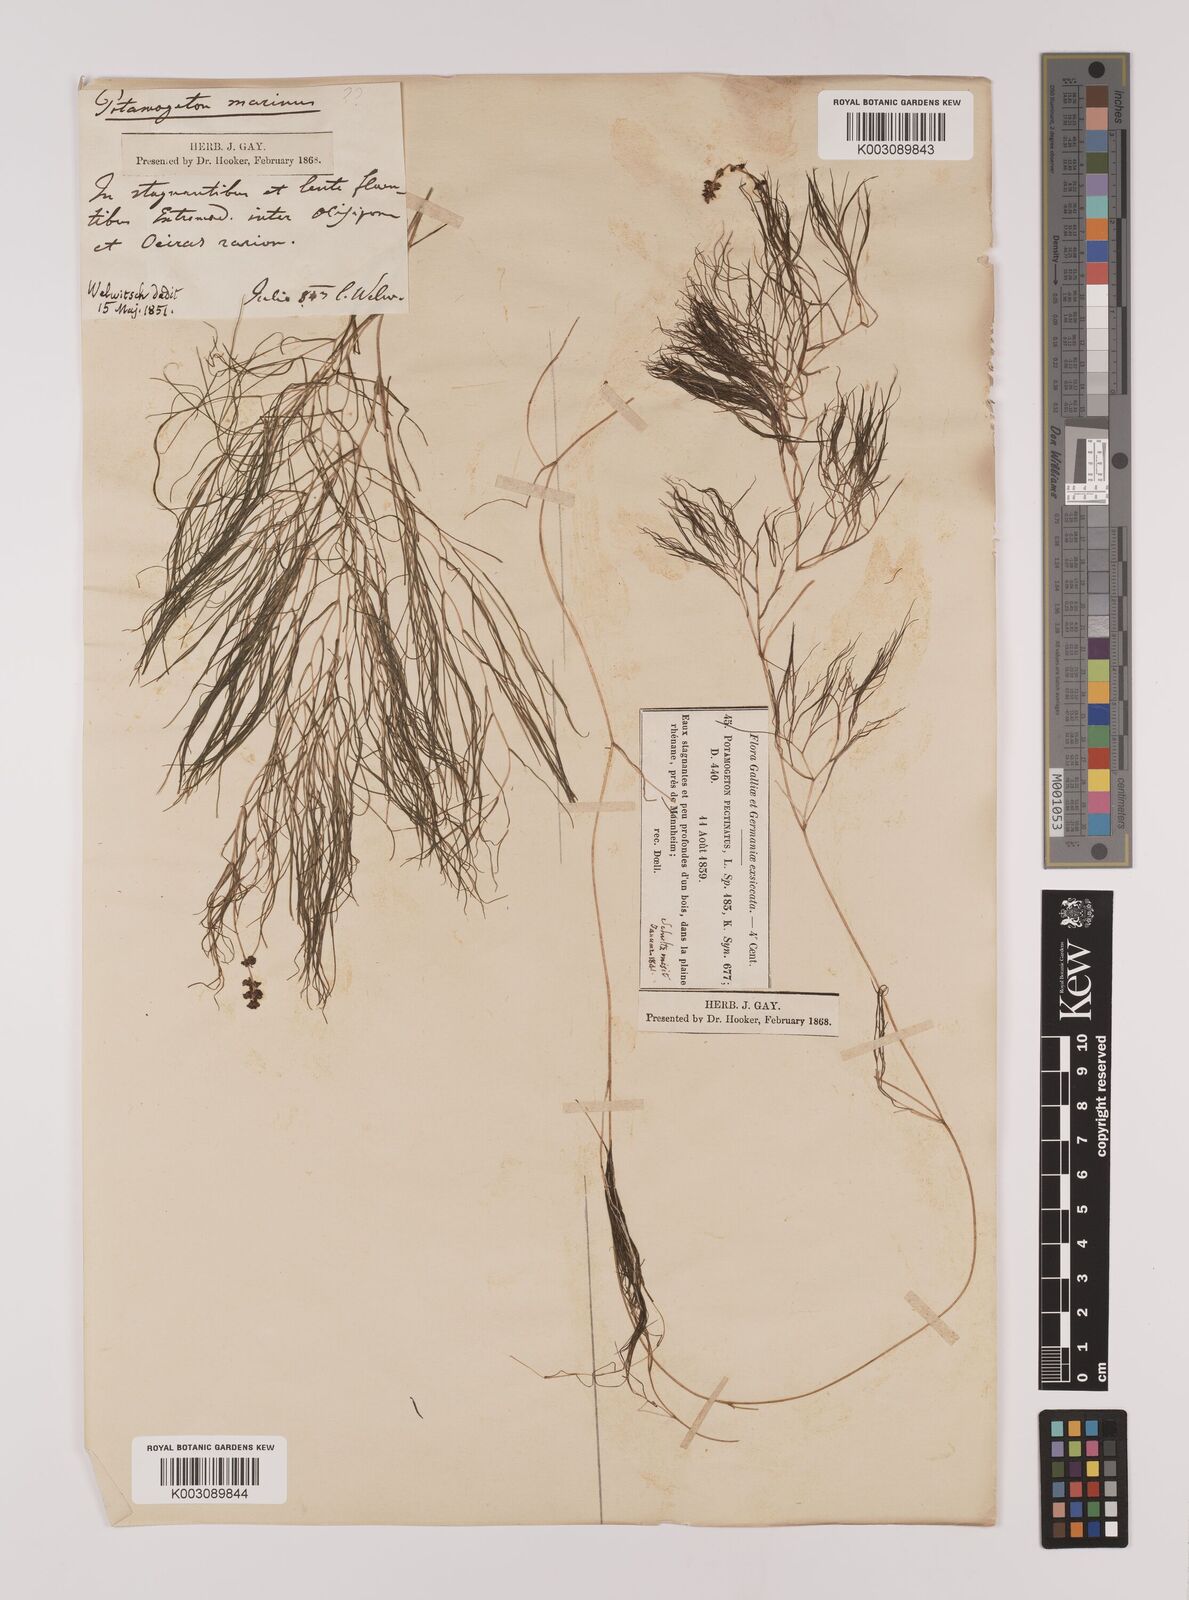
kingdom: Plantae
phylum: Tracheophyta
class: Liliopsida
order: Alismatales
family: Potamogetonaceae
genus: Stuckenia
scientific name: Stuckenia pectinata
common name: Sago pondweed
